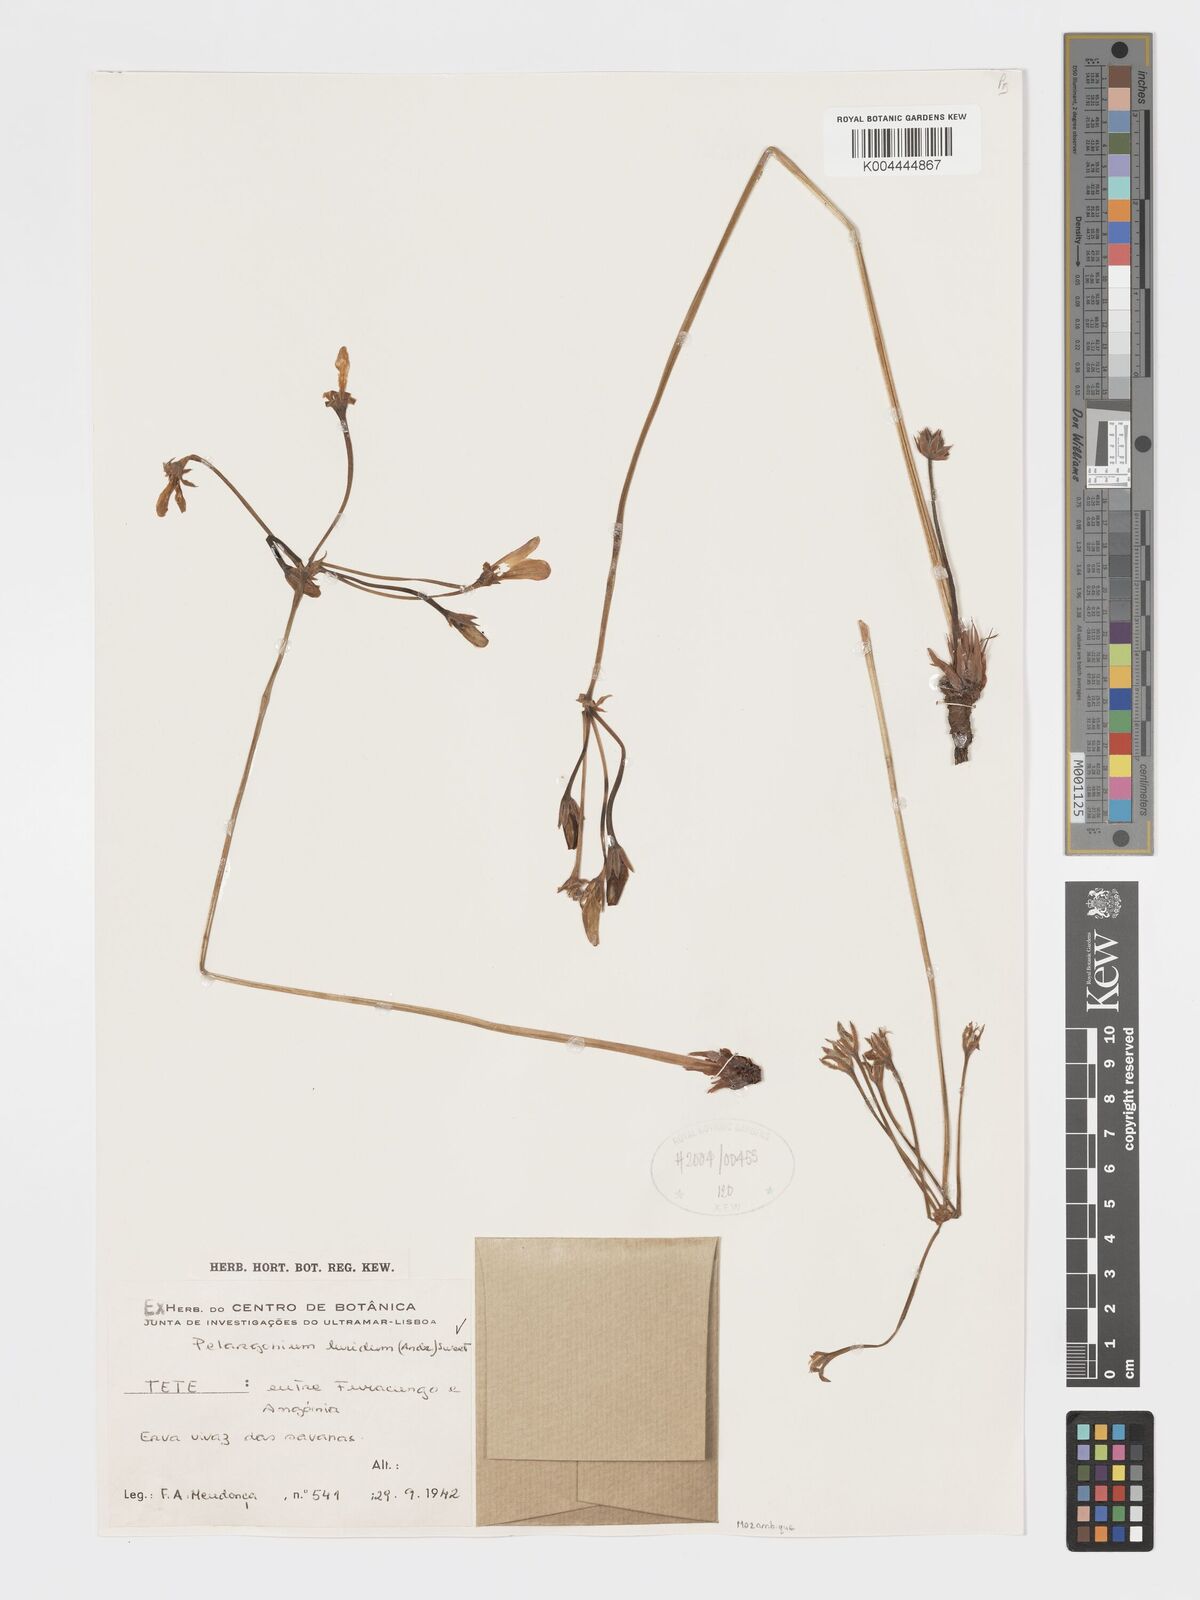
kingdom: Plantae
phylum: Tracheophyta
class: Magnoliopsida
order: Geraniales
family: Geraniaceae
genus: Pelargonium
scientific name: Pelargonium luridum
